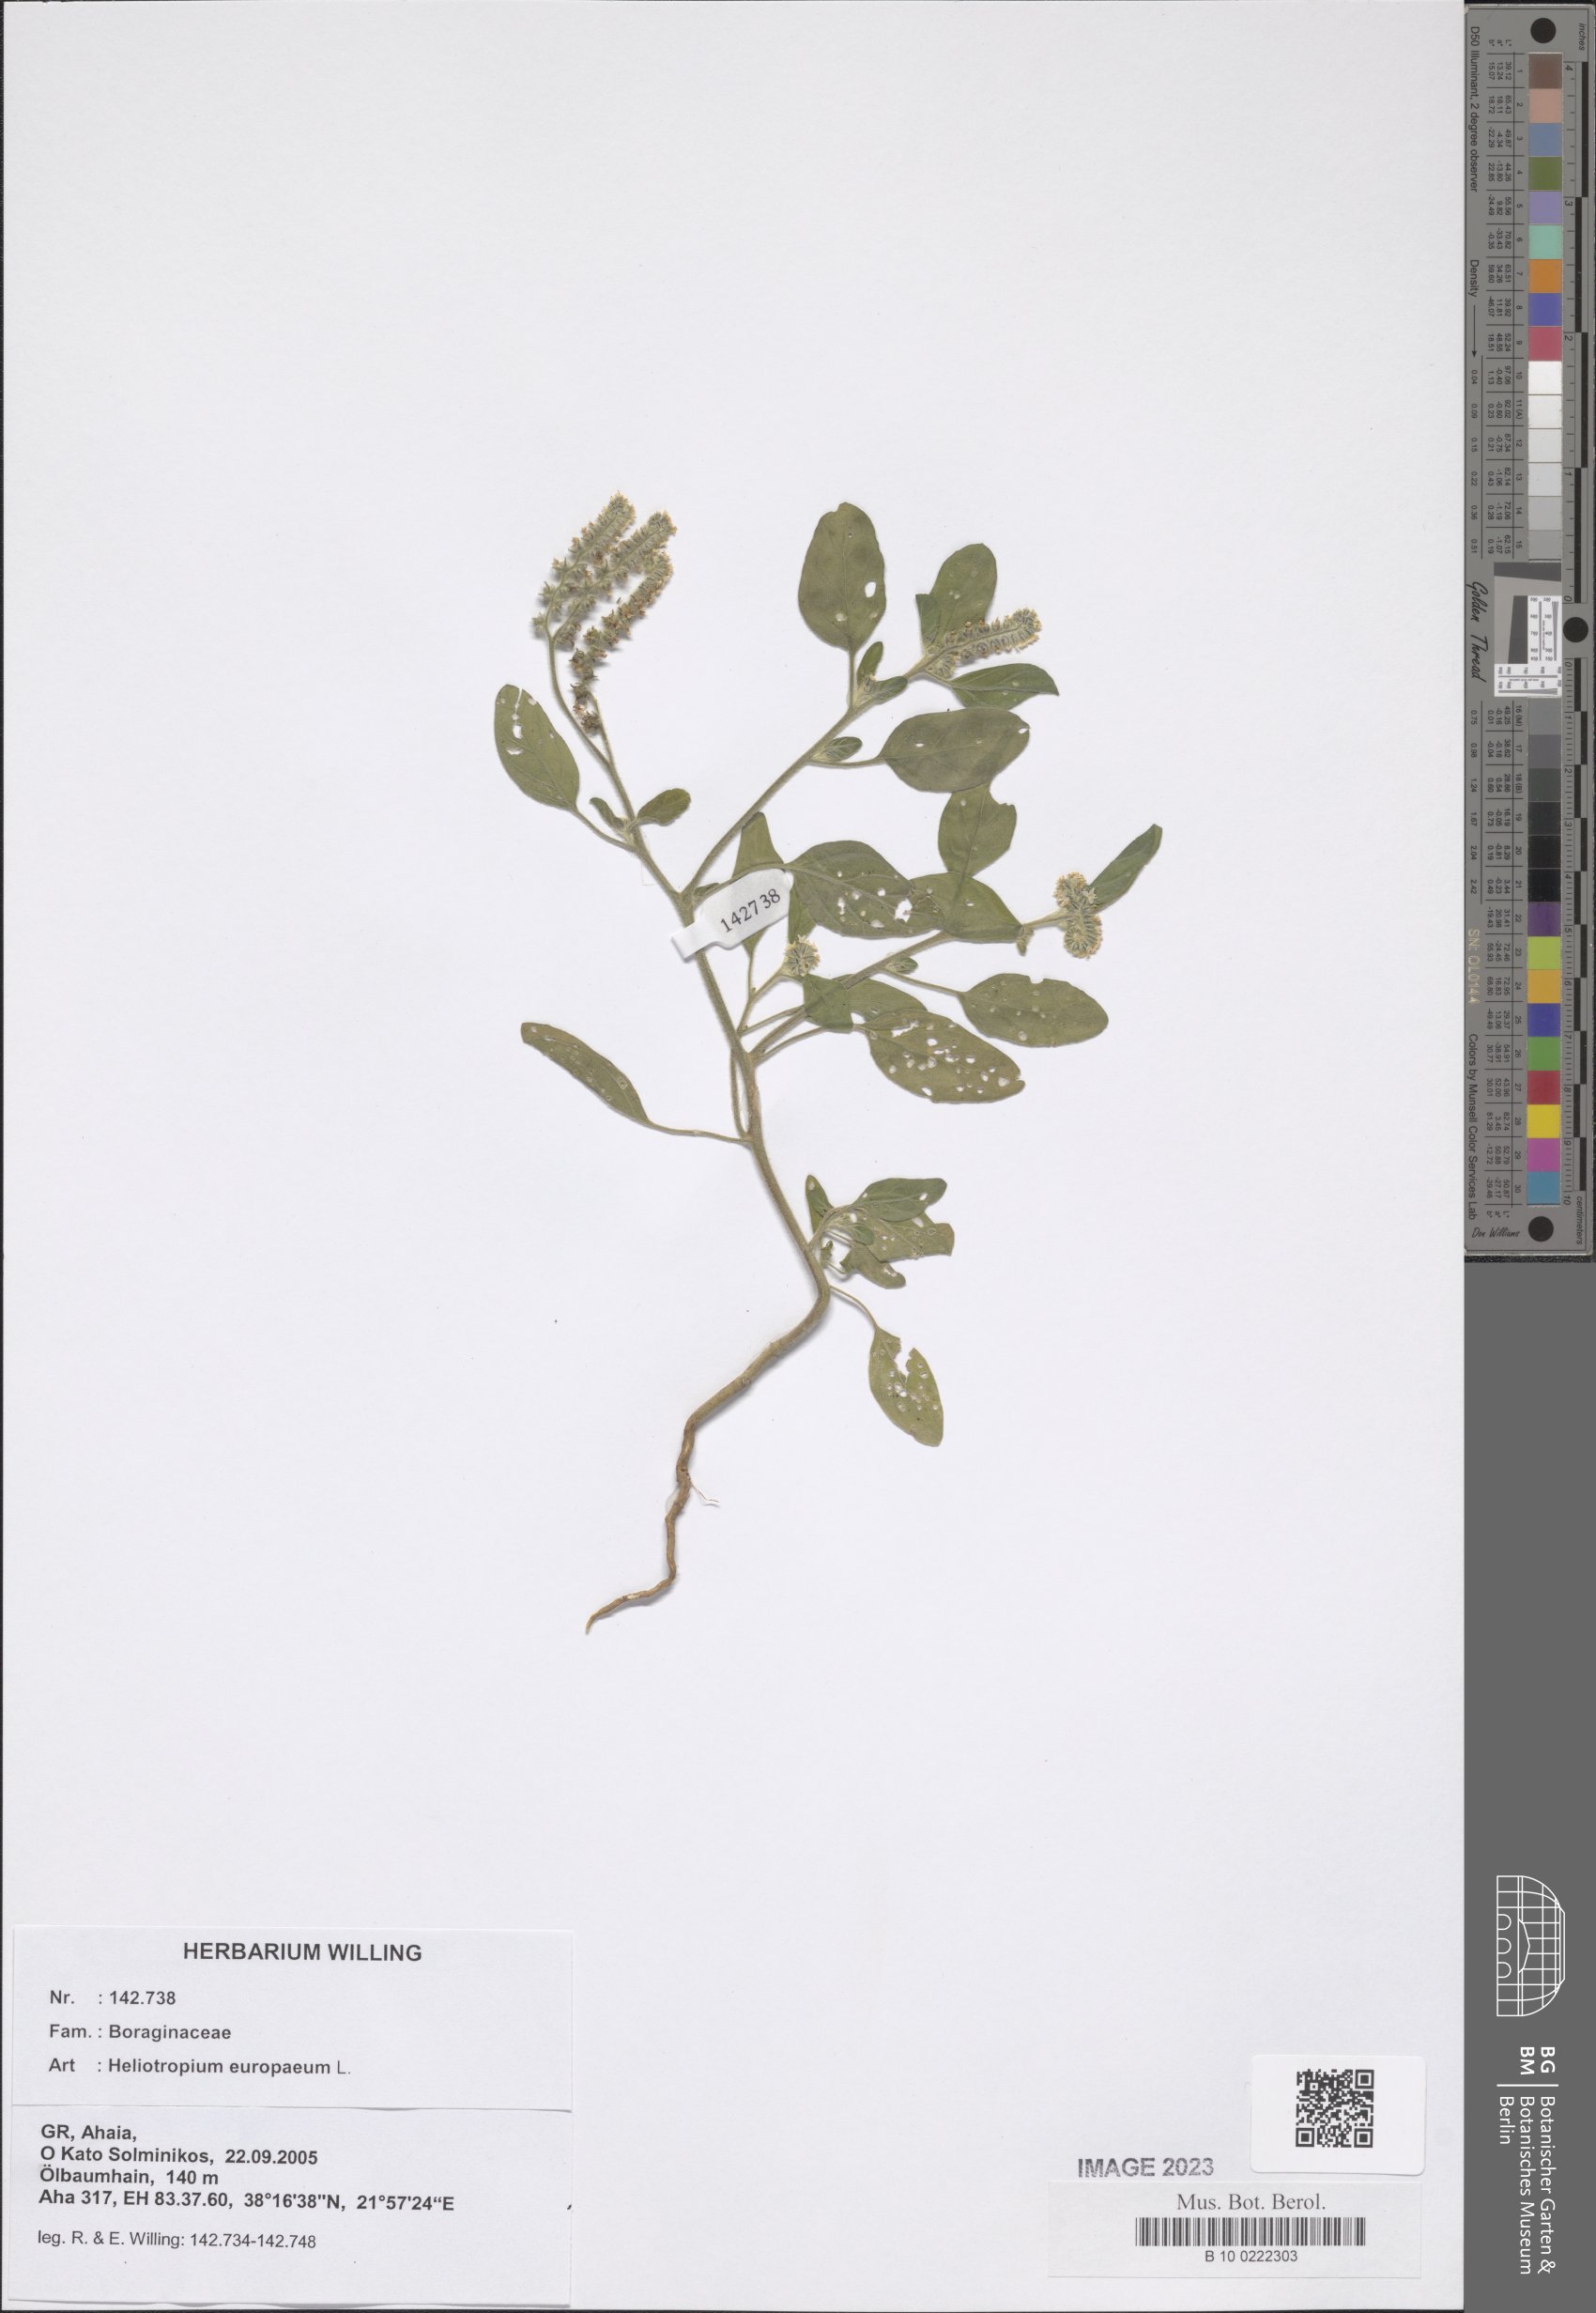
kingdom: Plantae
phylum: Tracheophyta
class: Magnoliopsida
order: Boraginales
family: Heliotropiaceae
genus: Heliotropium
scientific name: Heliotropium europaeum
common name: European heliotrope
